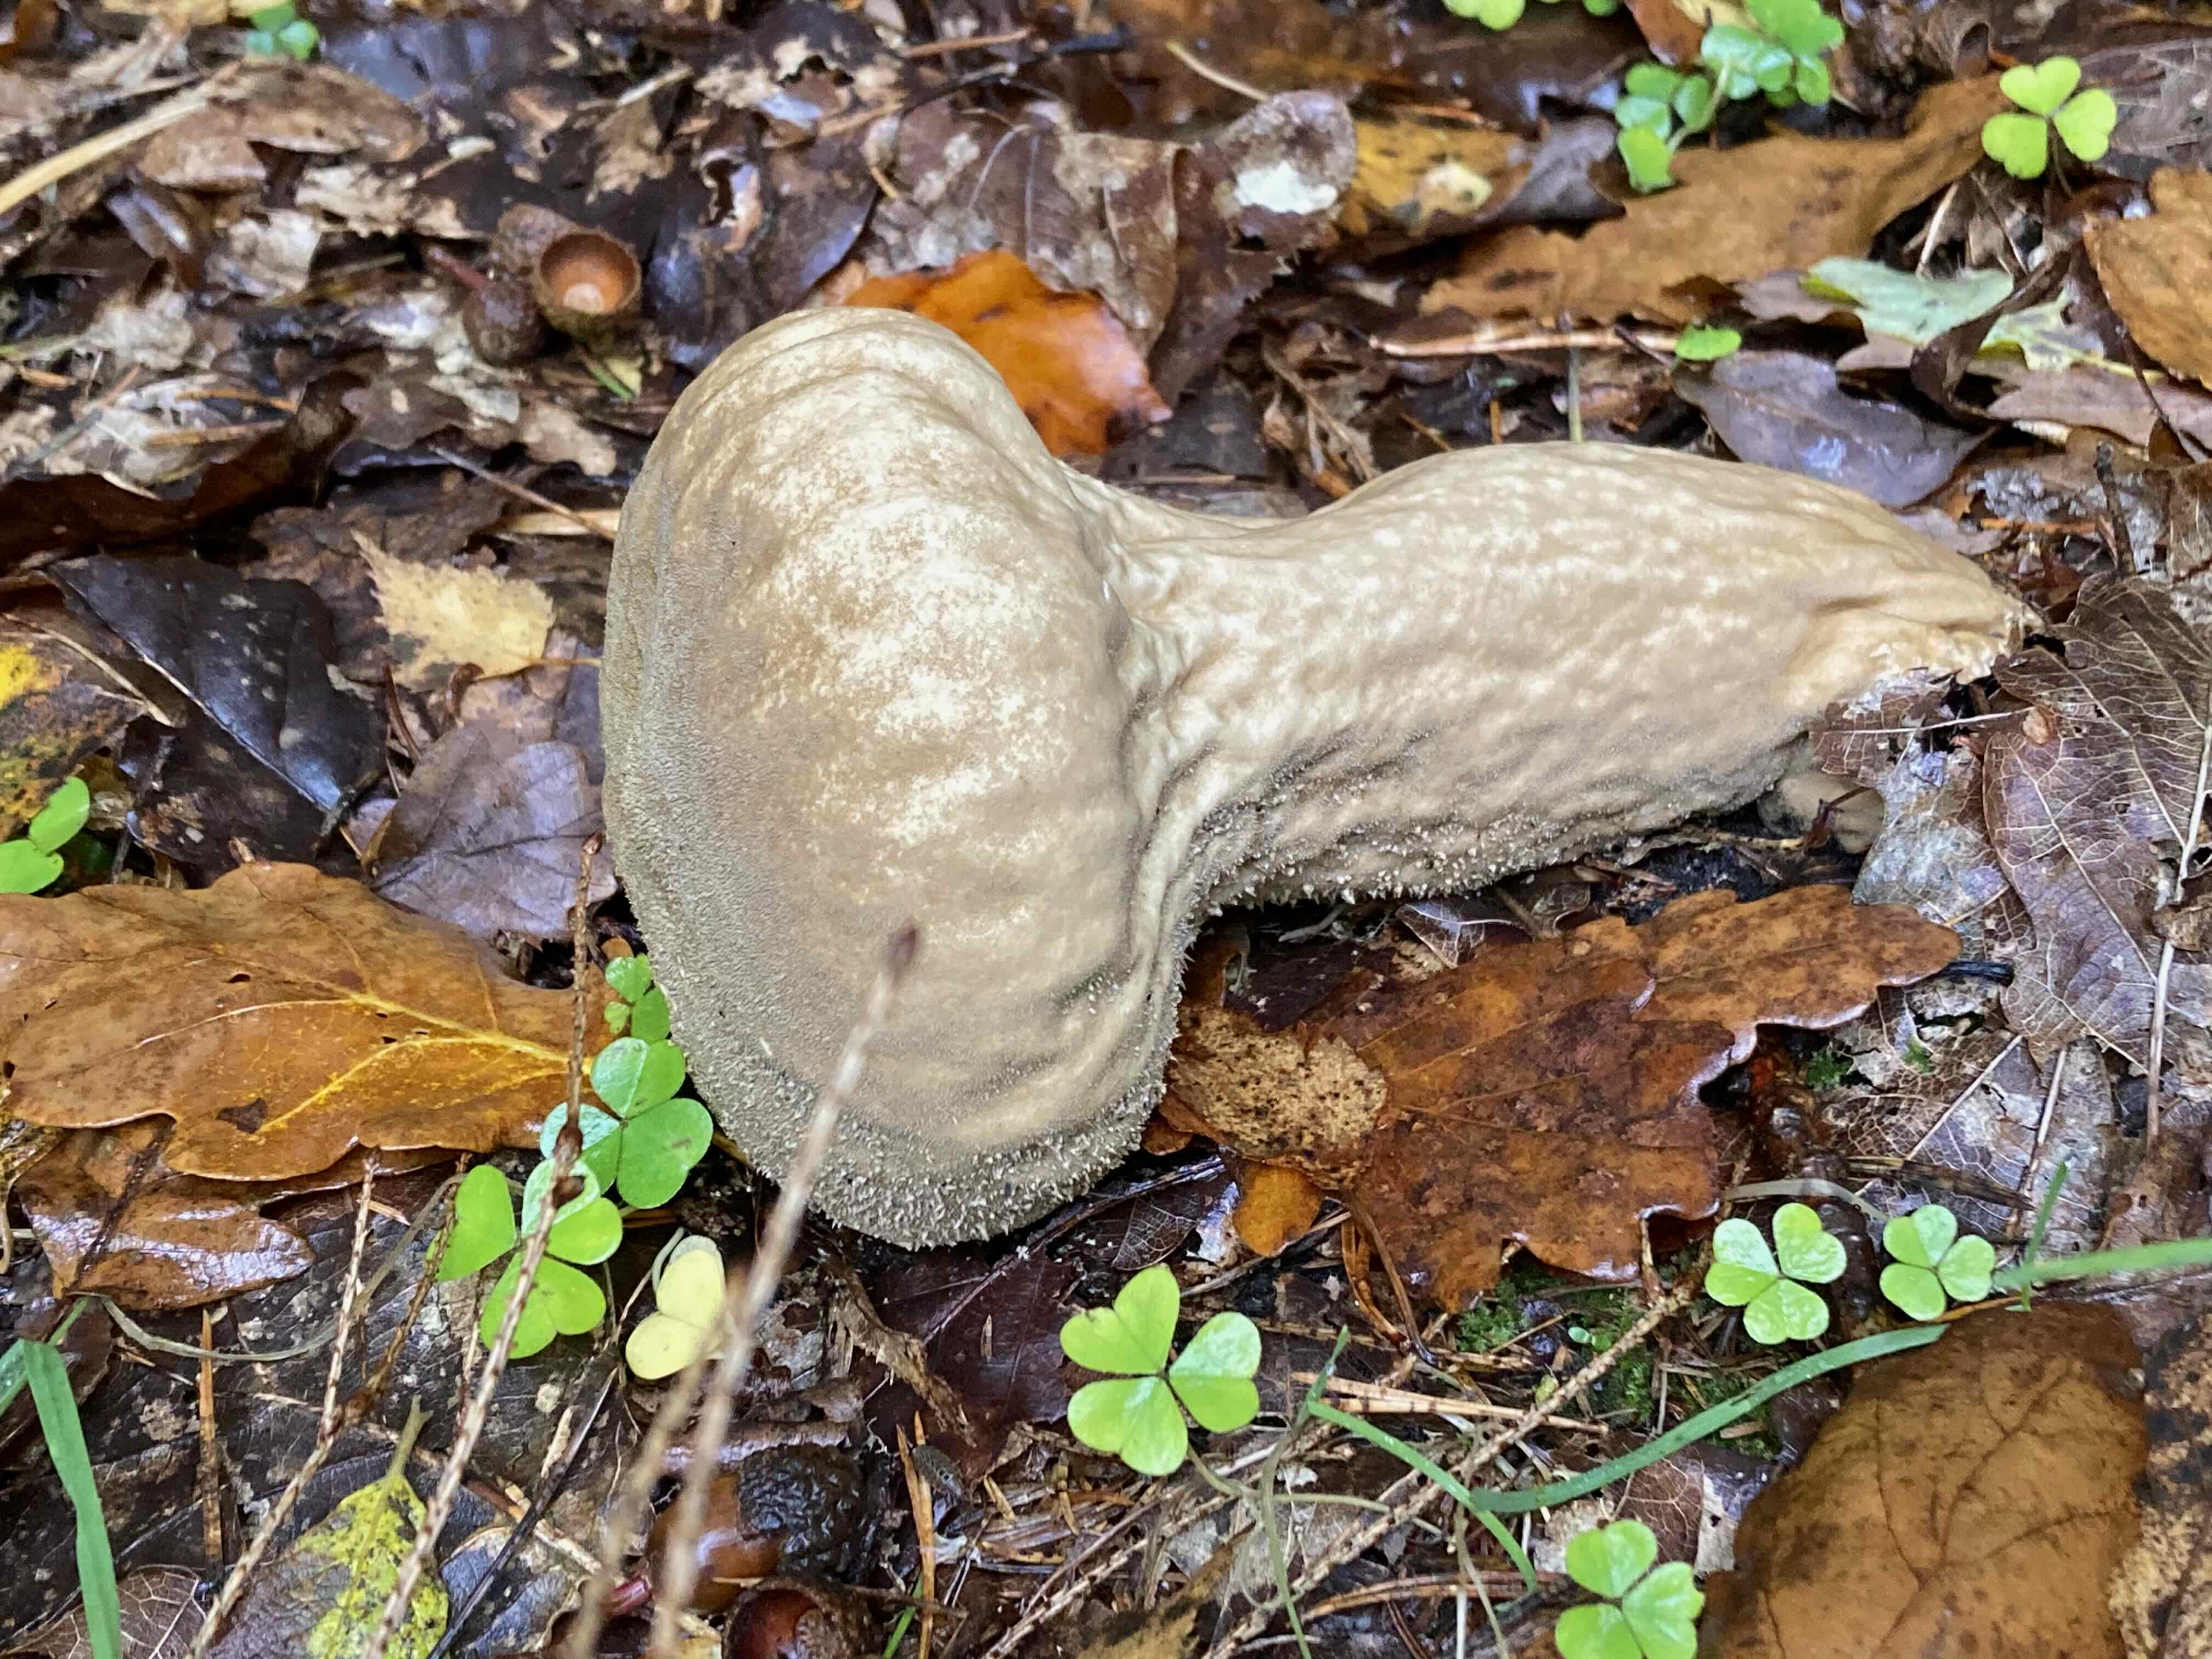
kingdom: Fungi
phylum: Basidiomycota
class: Agaricomycetes
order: Agaricales
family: Lycoperdaceae
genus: Lycoperdon
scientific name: Lycoperdon excipuliforme
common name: højstokket støvbold
